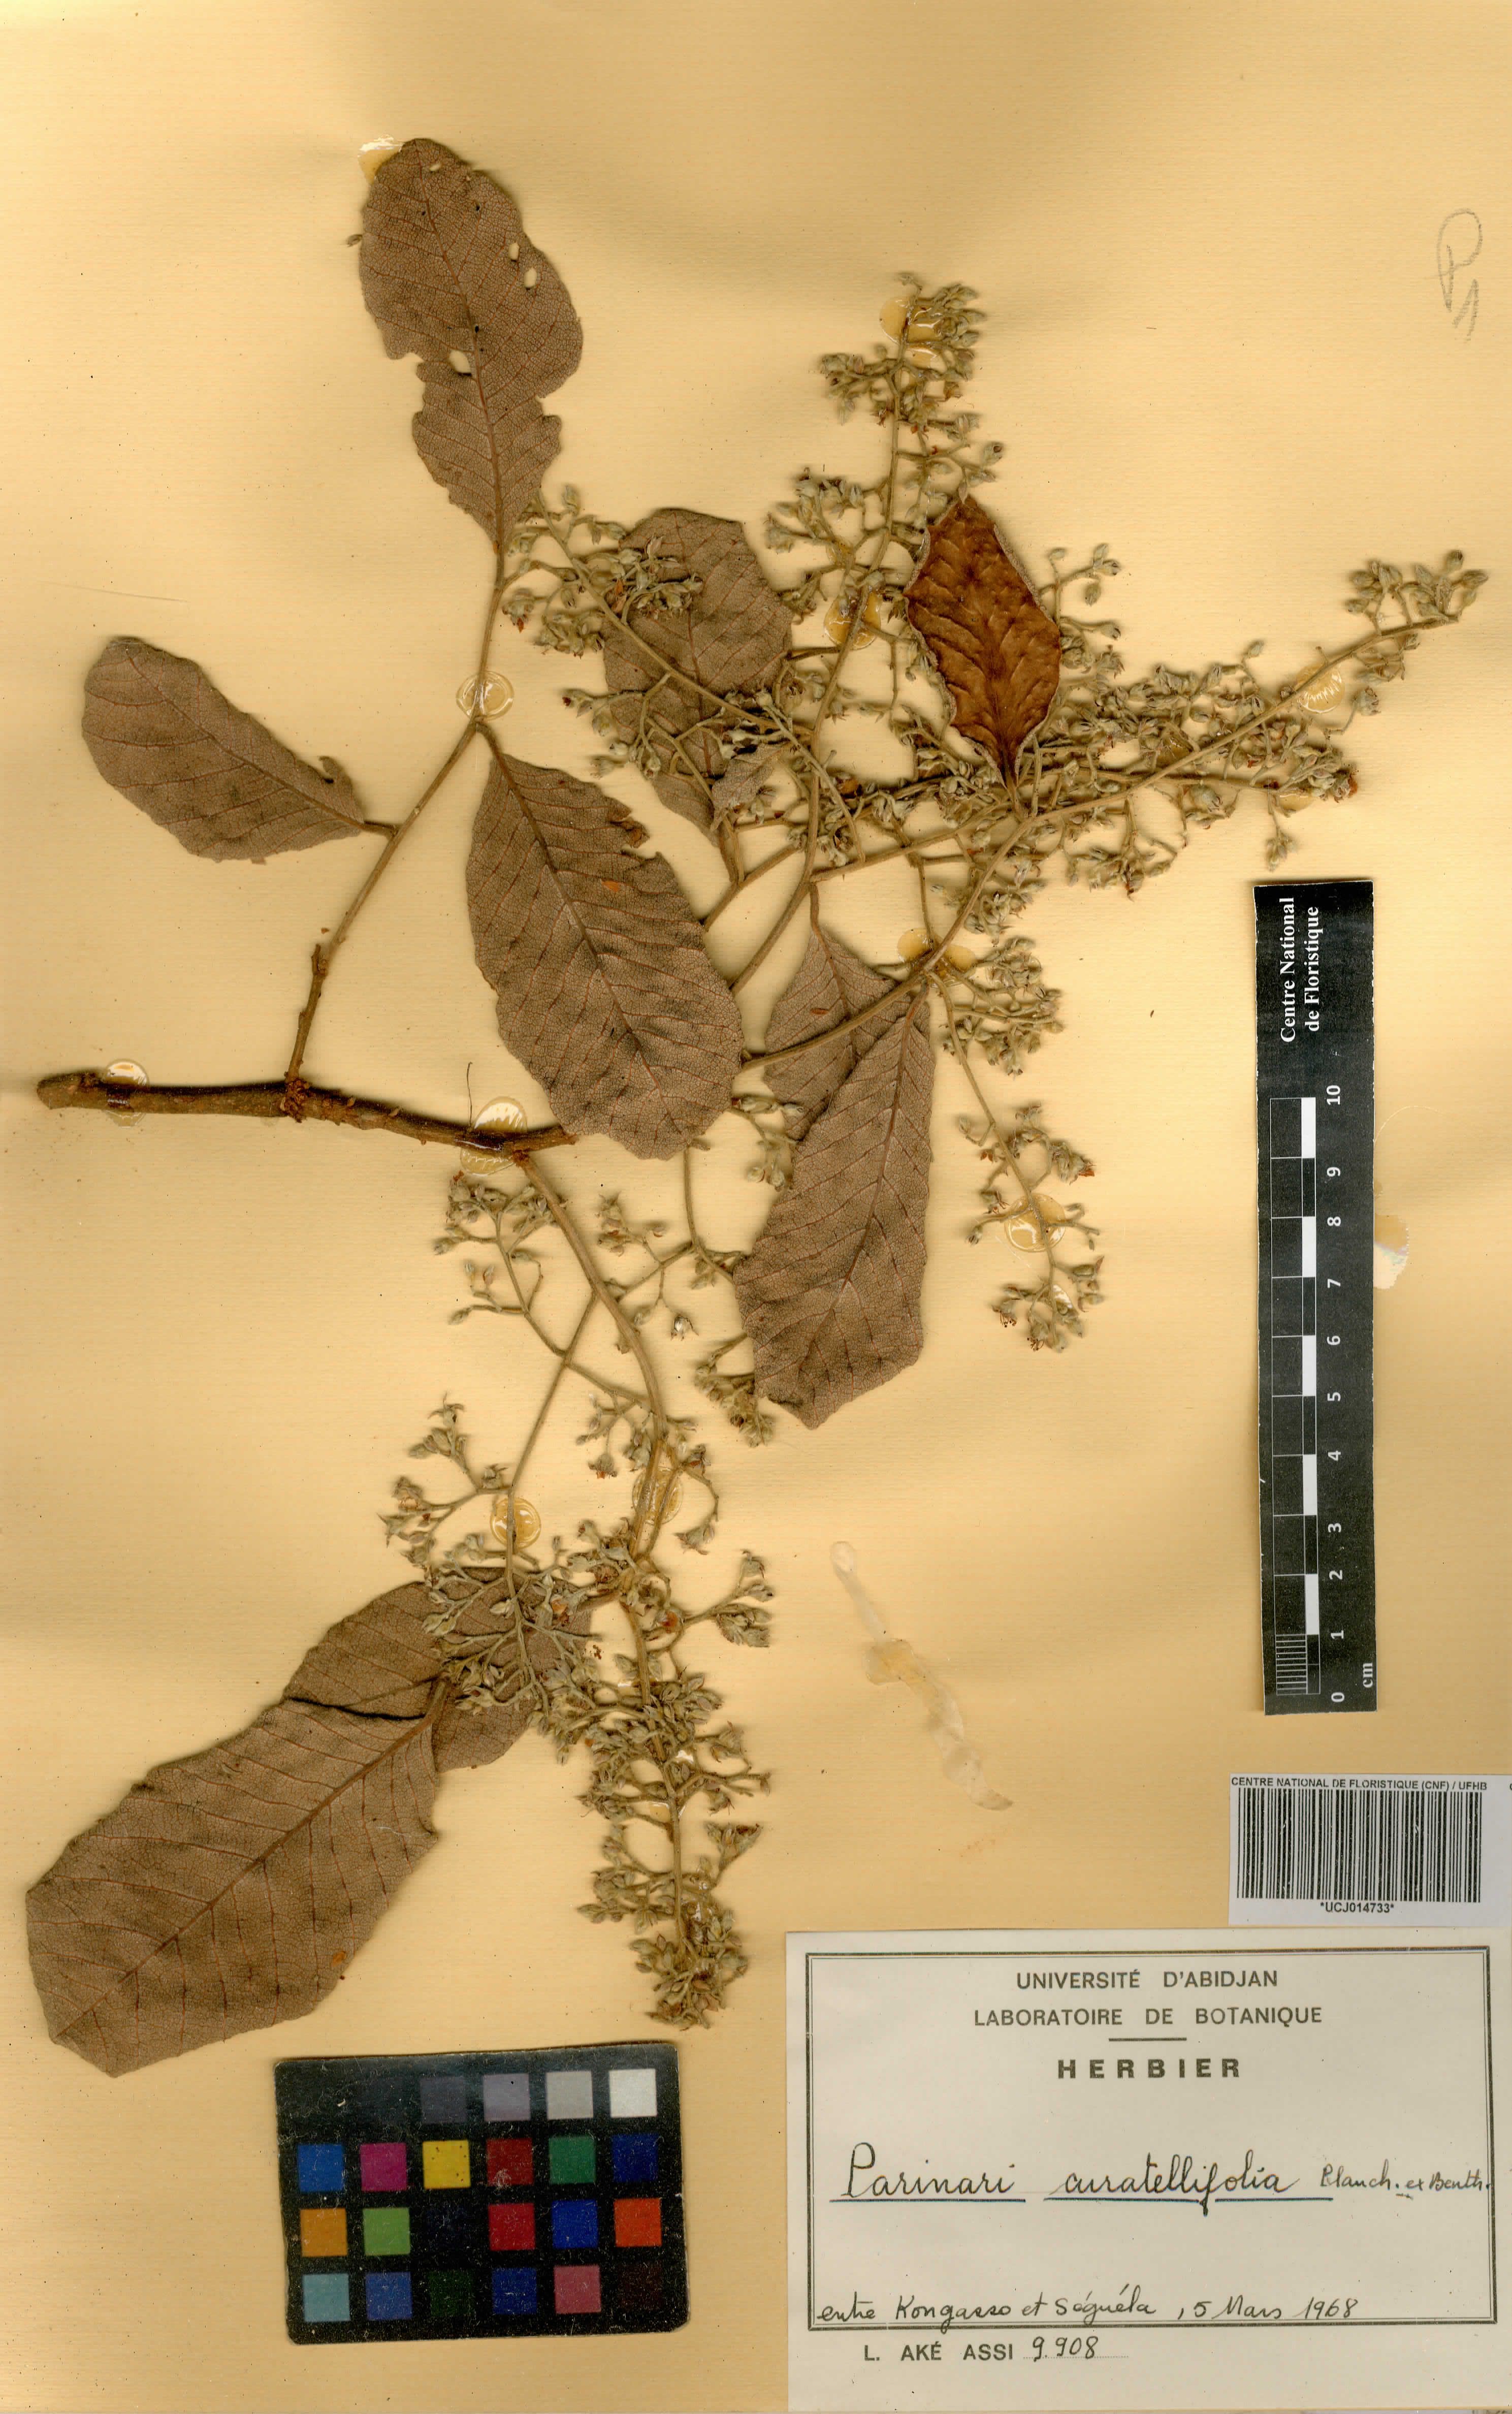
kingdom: Plantae
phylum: Tracheophyta
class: Magnoliopsida
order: Malpighiales
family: Chrysobalanaceae
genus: Parinari
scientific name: Parinari curatellifolia
